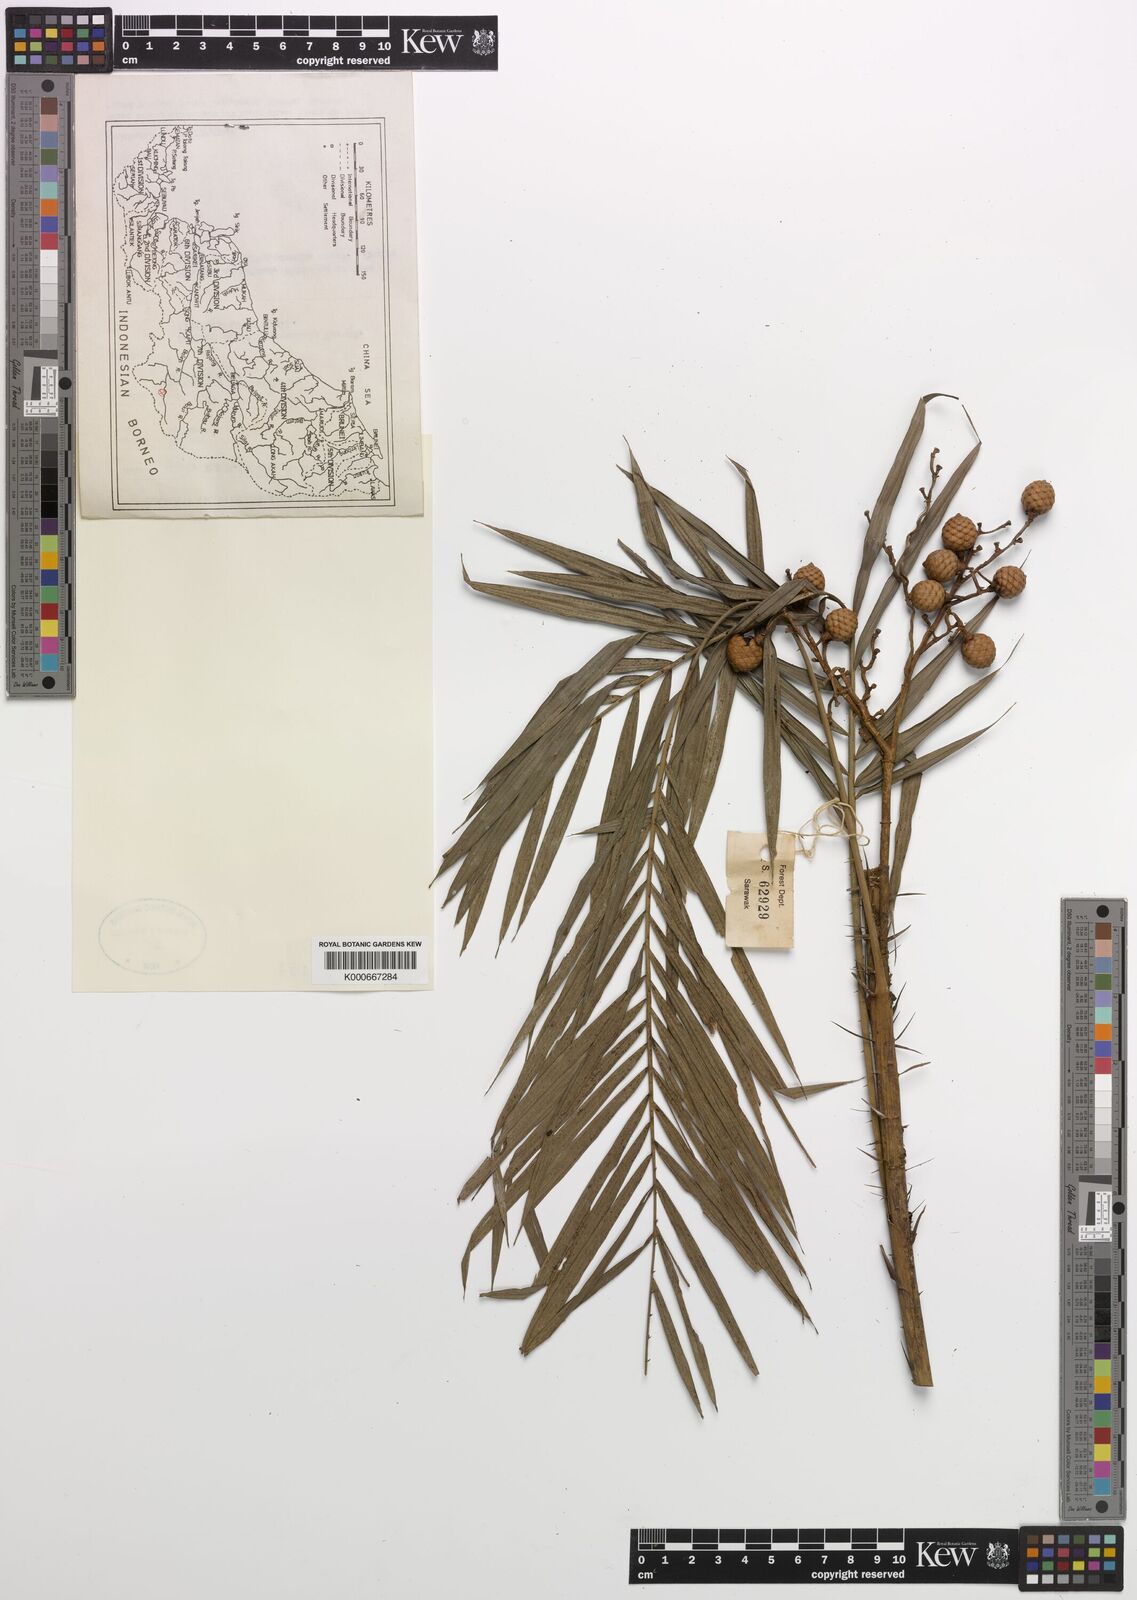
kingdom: Plantae
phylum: Tracheophyta
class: Liliopsida
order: Arecales
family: Arecaceae
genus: Calamus
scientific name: Calamus kunstleri
